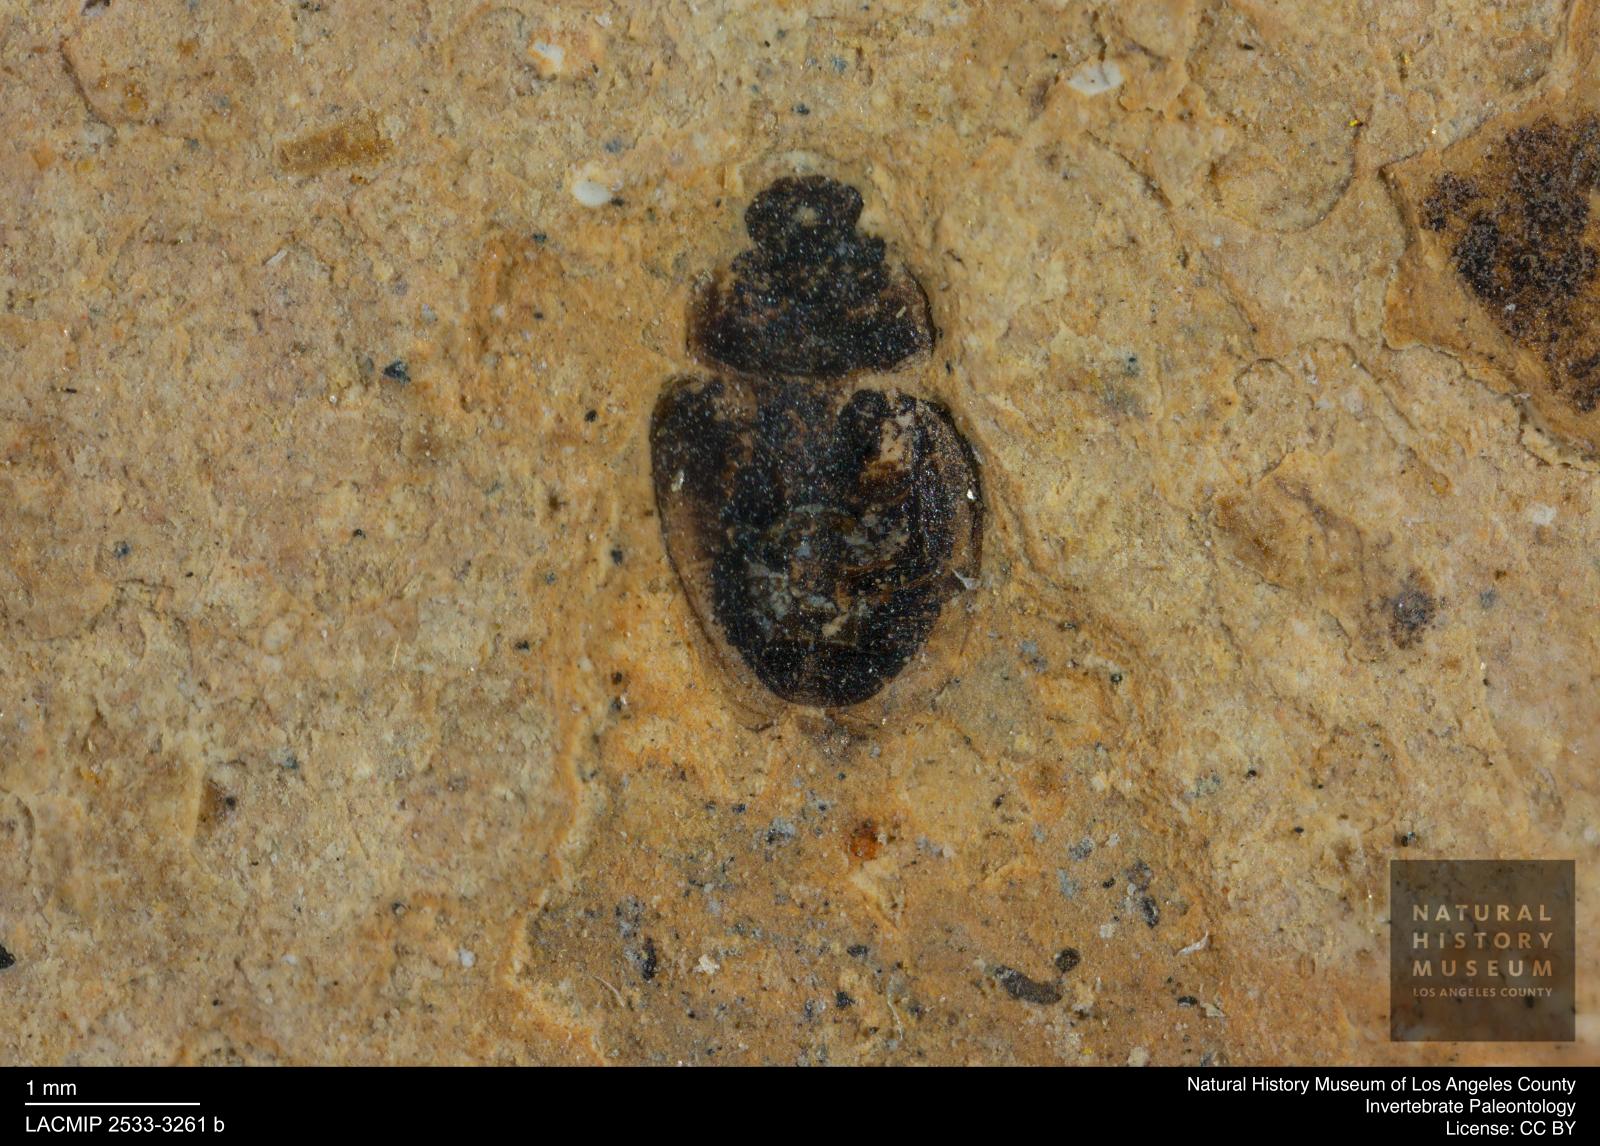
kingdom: Animalia
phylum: Arthropoda
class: Insecta
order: Coleoptera
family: Hydrophilidae
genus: Paracymus
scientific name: Paracymus excitatus
